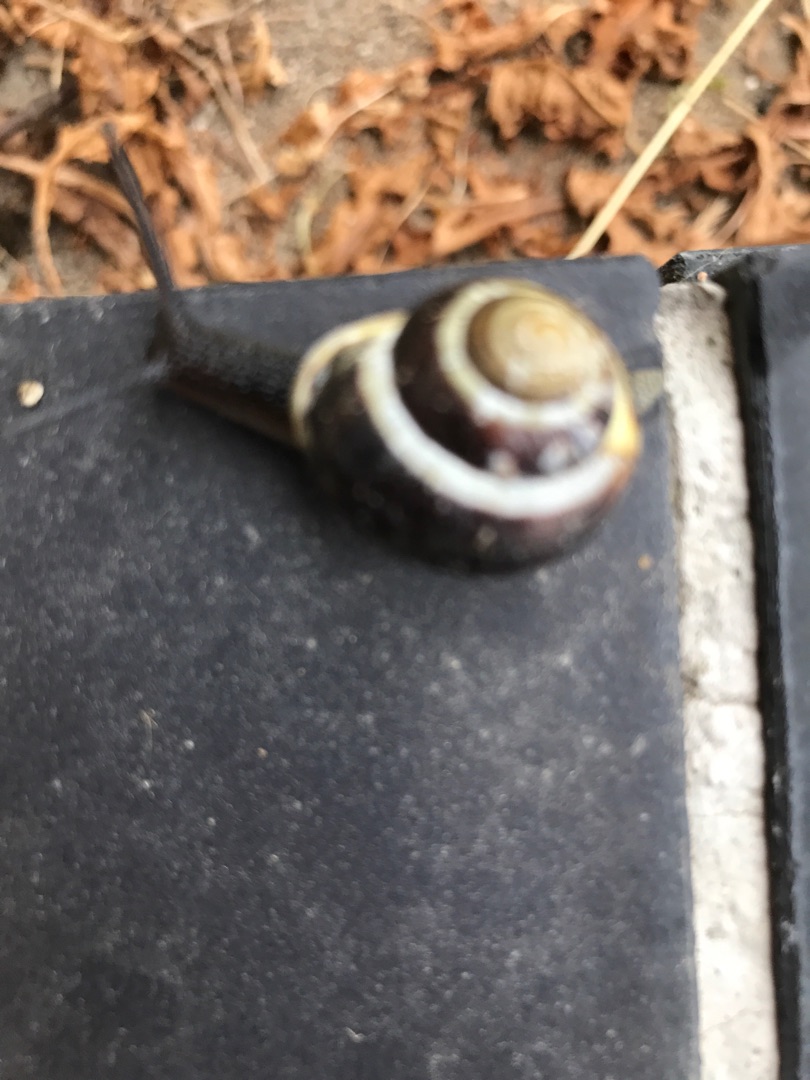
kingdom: Animalia
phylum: Mollusca
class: Gastropoda
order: Stylommatophora
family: Helicidae
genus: Cepaea
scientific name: Cepaea hortensis
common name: Havesnegl
